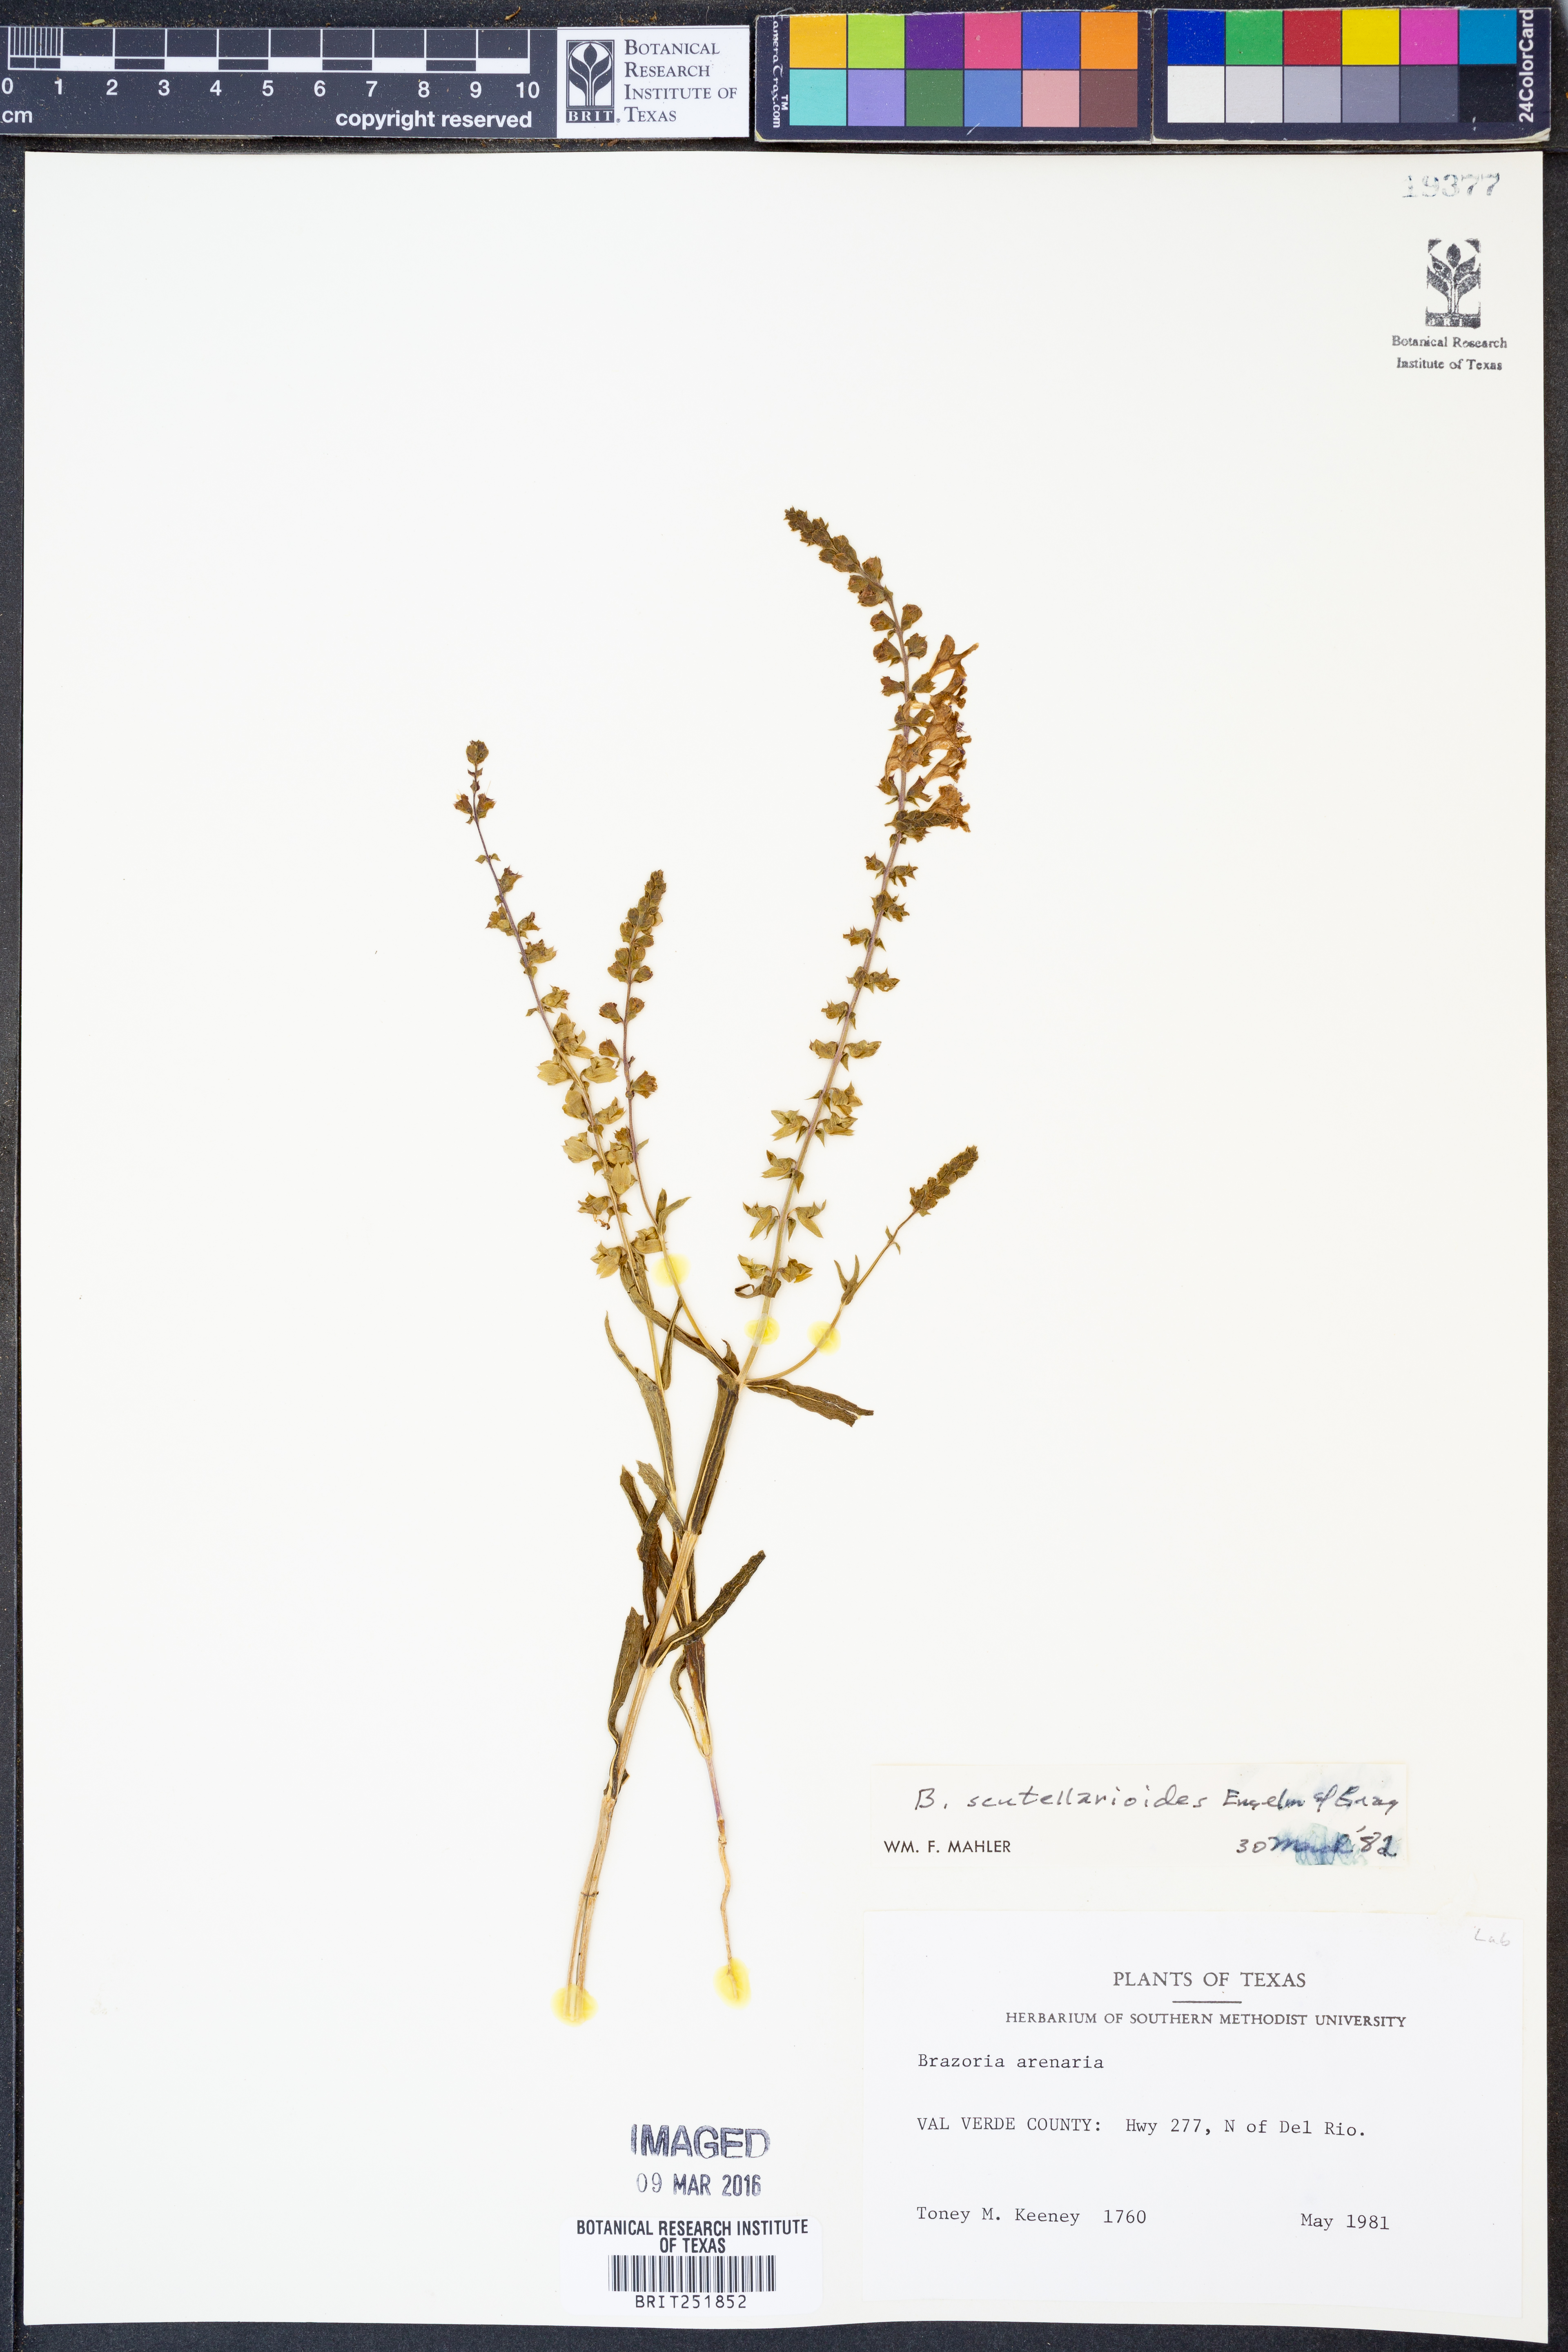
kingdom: Plantae
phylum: Tracheophyta
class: Magnoliopsida
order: Lamiales
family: Lamiaceae
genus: Warnockia
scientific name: Warnockia scutellarioides
